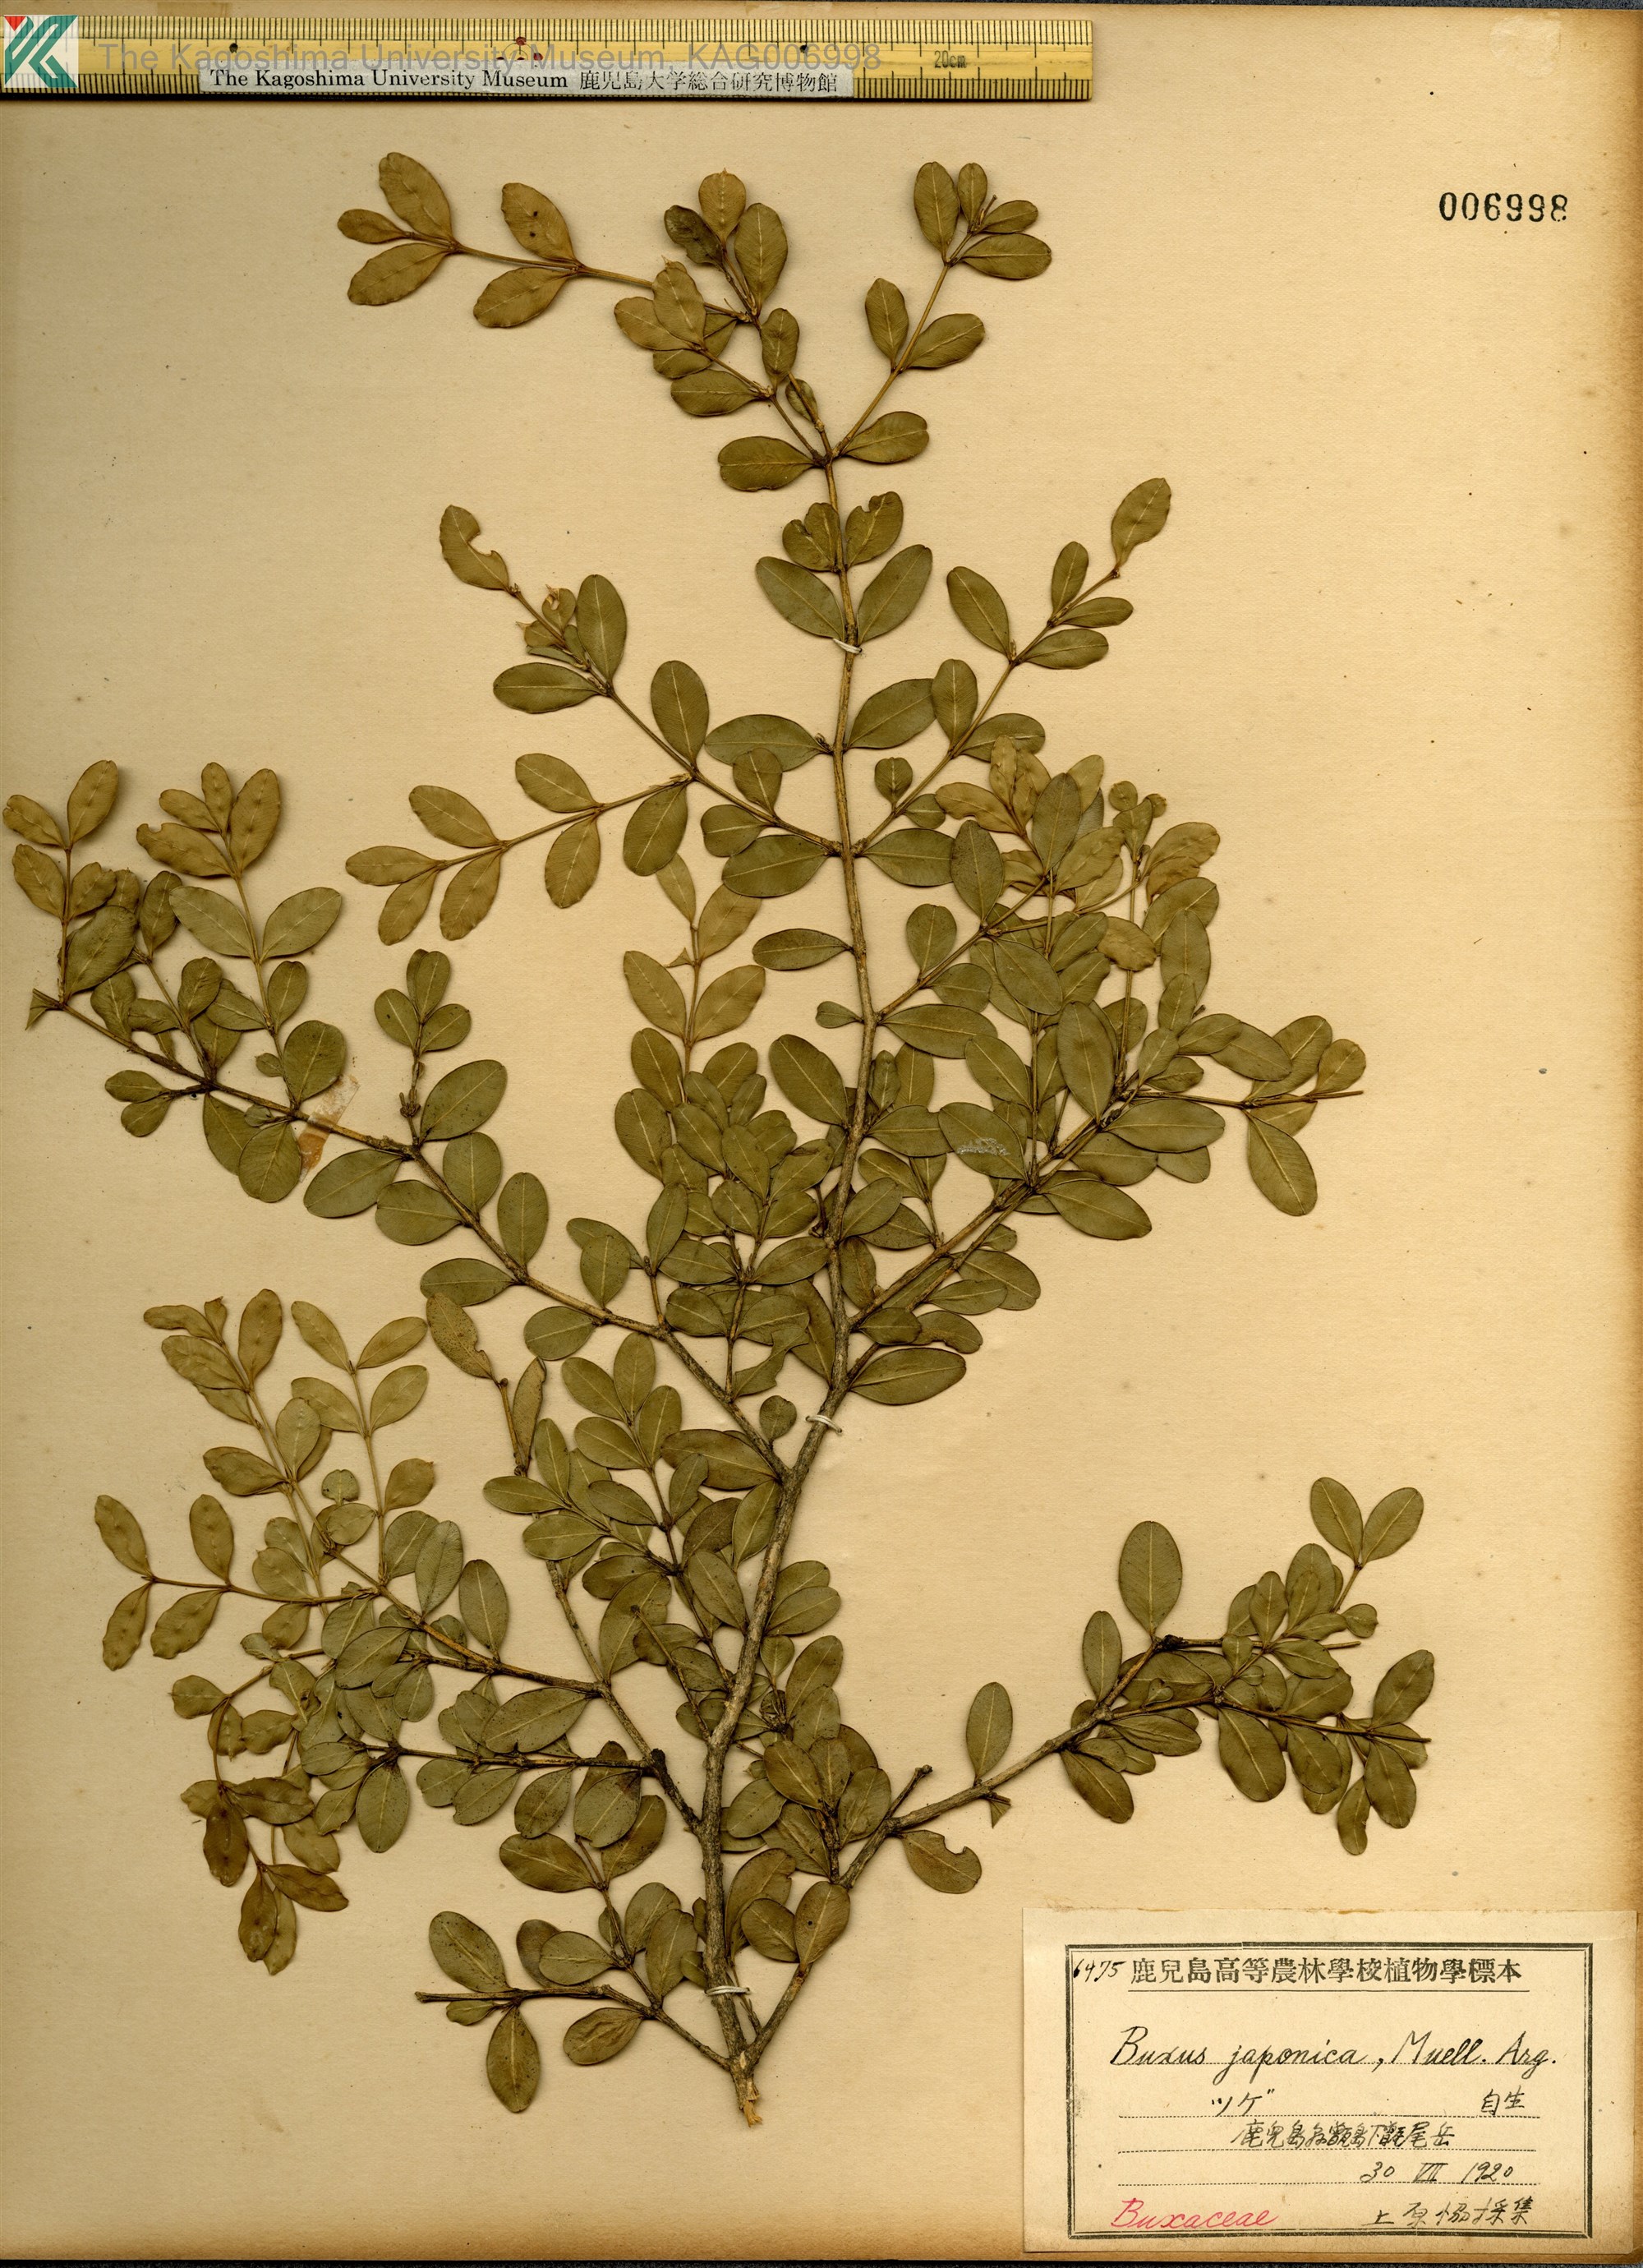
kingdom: Plantae
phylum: Tracheophyta
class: Magnoliopsida
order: Buxales
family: Buxaceae
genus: Buxus
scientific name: Buxus microphylla
